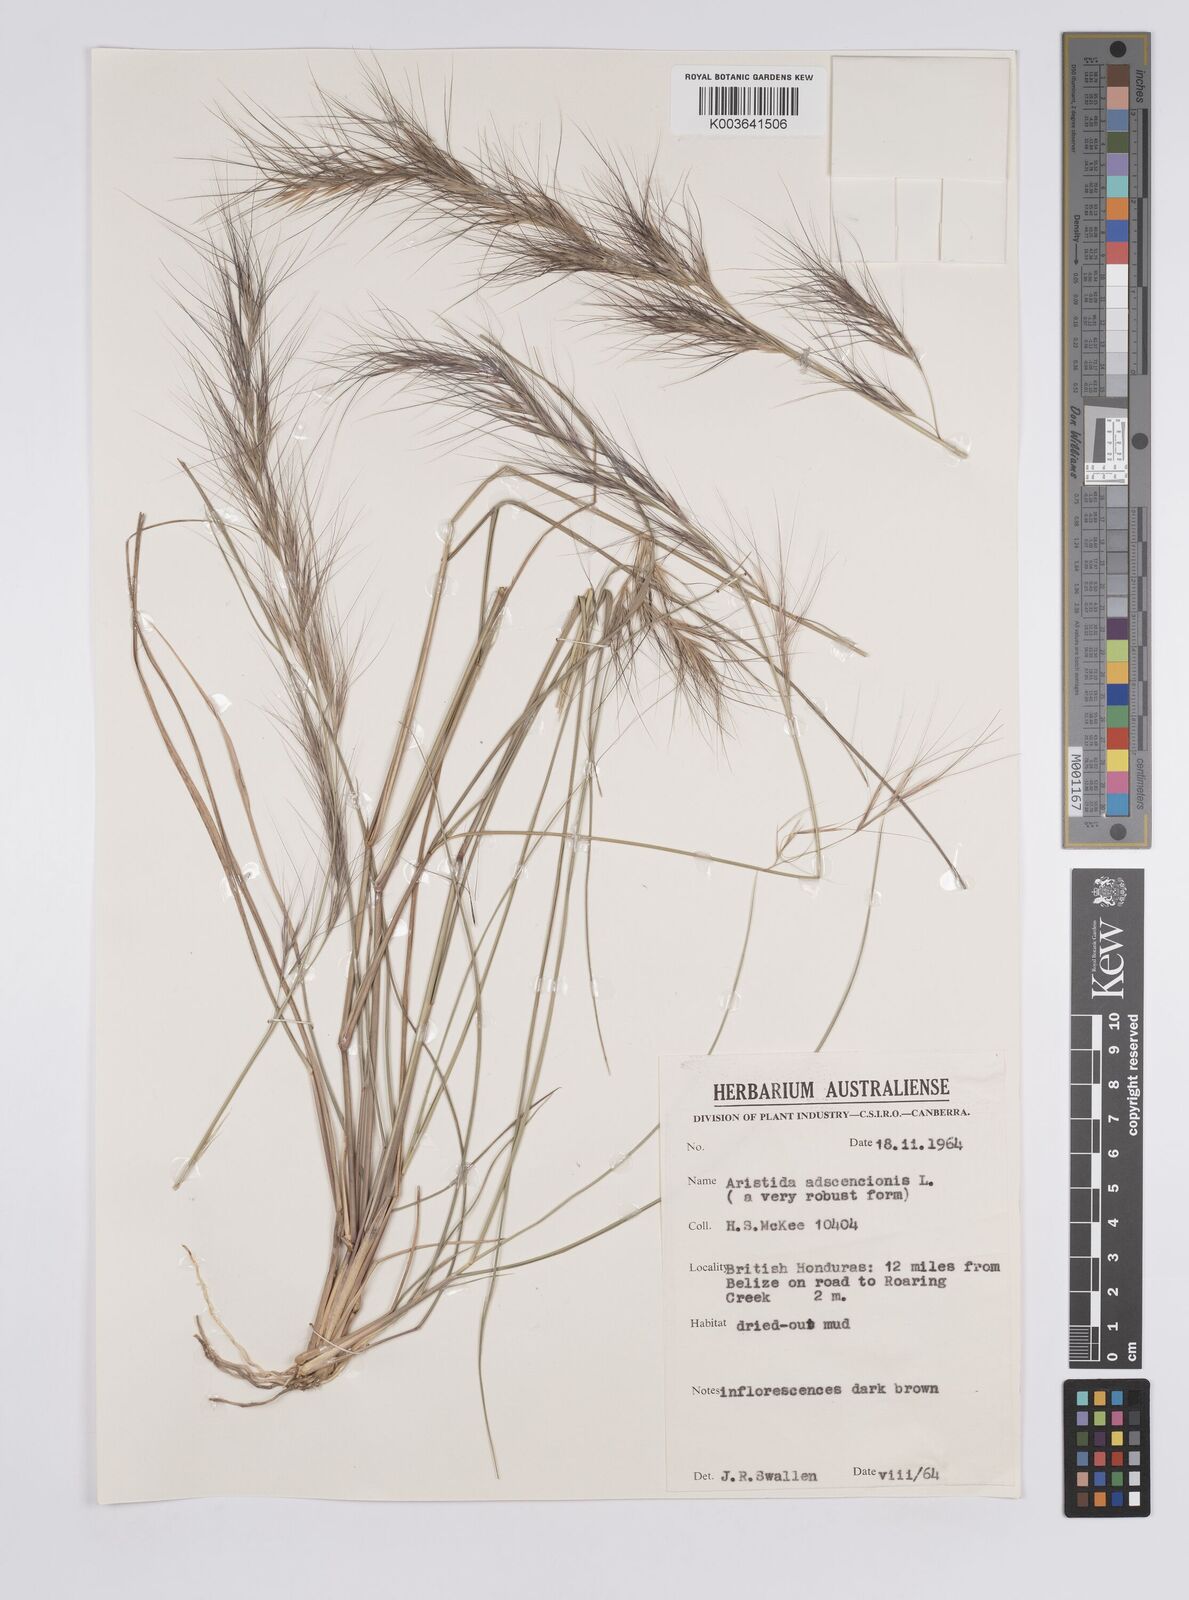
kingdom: Plantae
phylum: Tracheophyta
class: Liliopsida
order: Poales
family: Poaceae
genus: Aristida
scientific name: Aristida adscensionis
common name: Sixweeks threeawn
